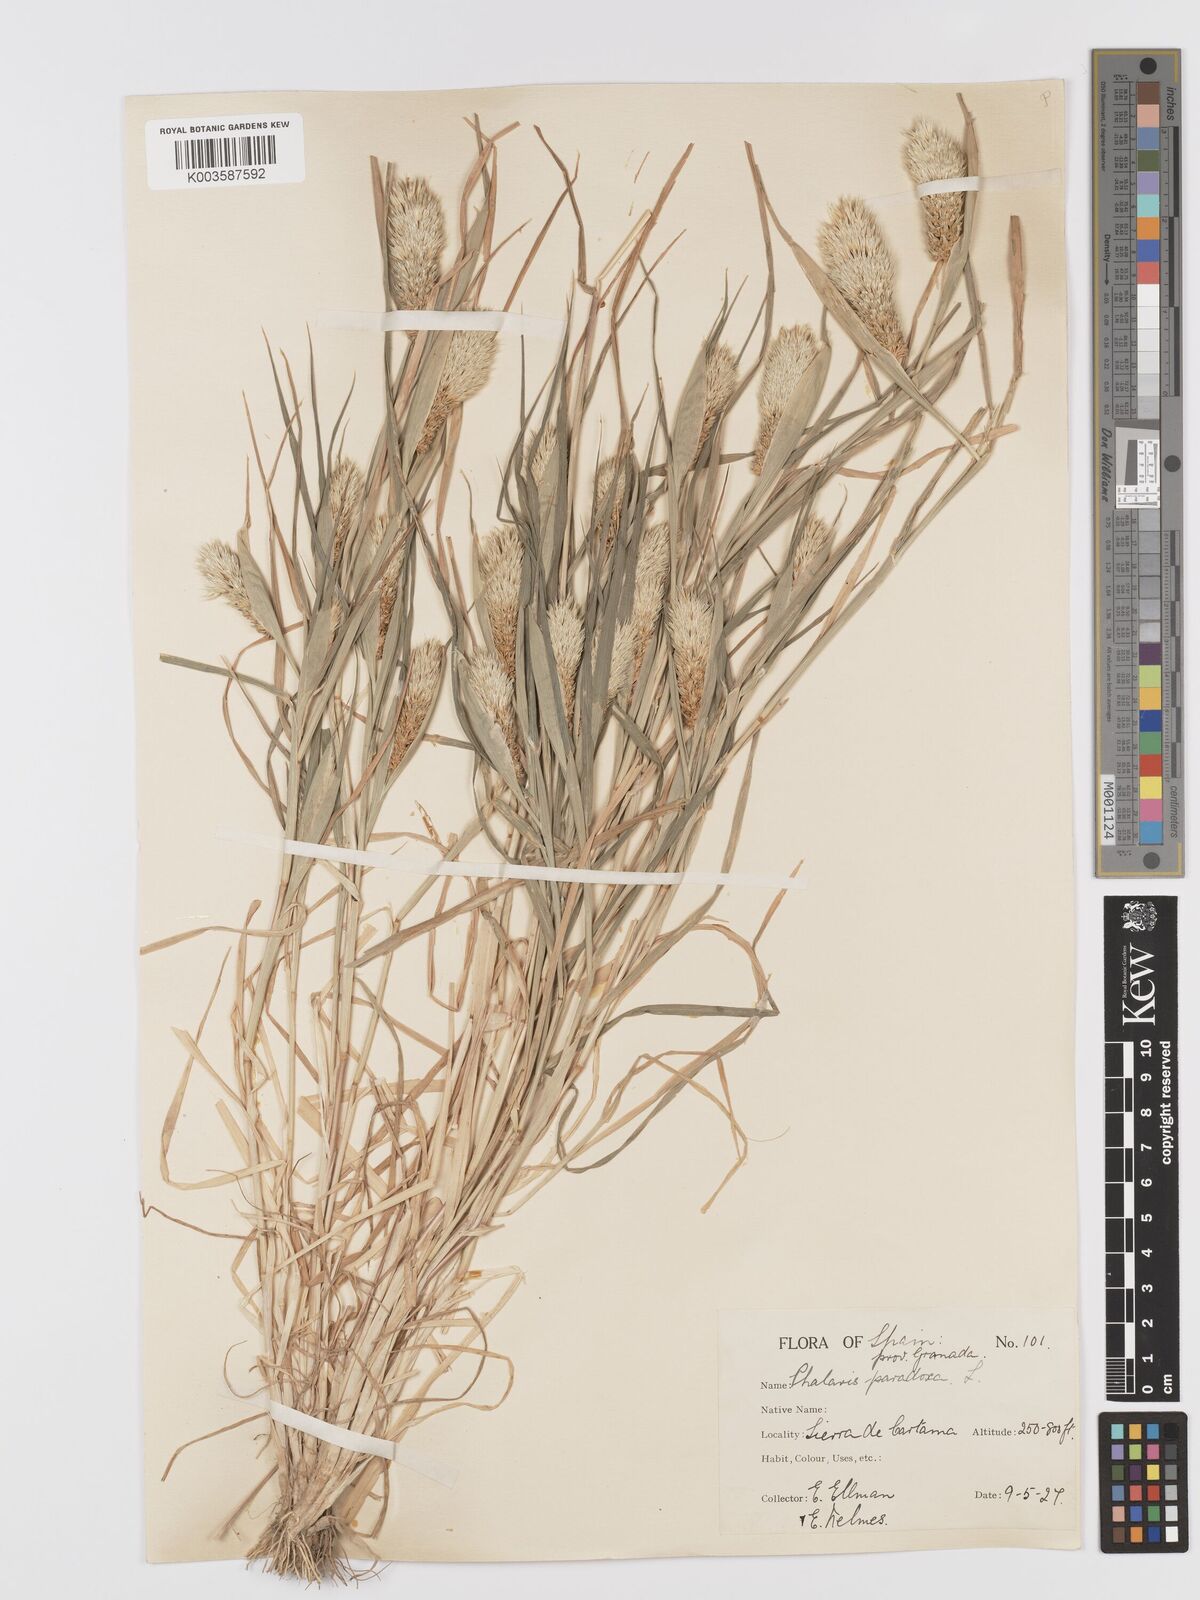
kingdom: Plantae
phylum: Tracheophyta
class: Liliopsida
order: Poales
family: Poaceae
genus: Phalaris
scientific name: Phalaris paradoxa
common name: Awned canary-grass
